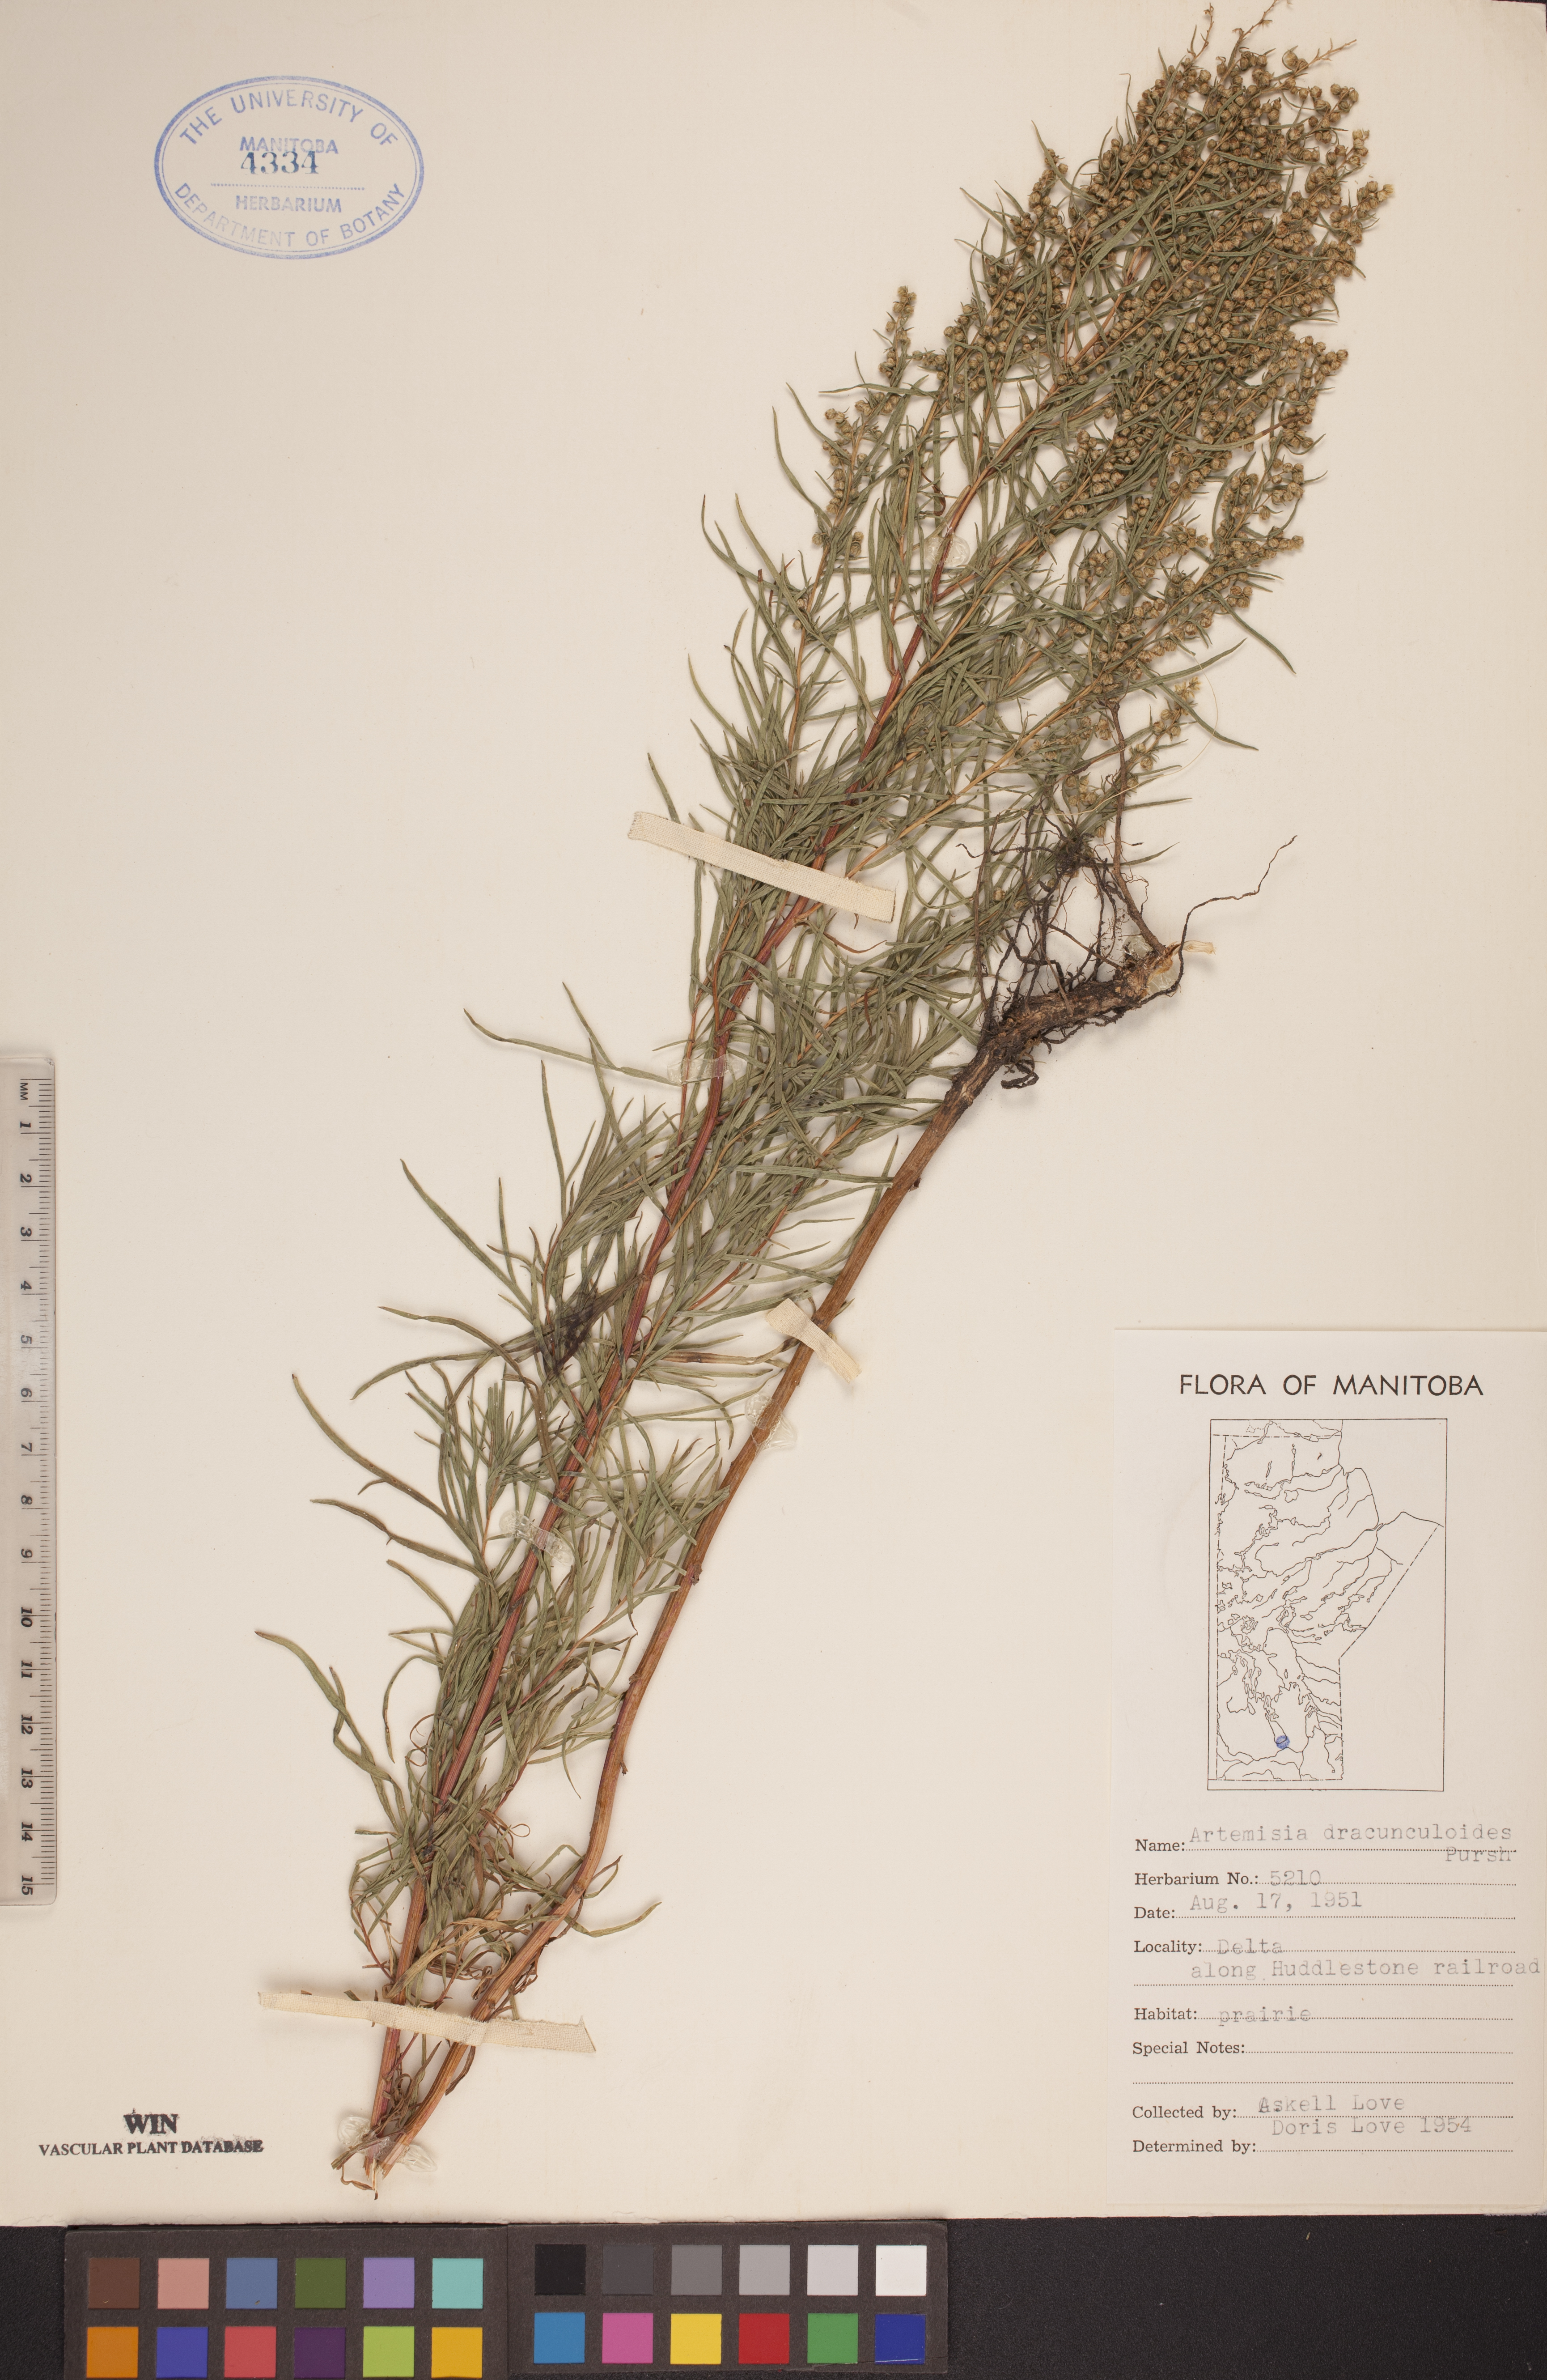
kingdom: Plantae
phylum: Tracheophyta
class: Magnoliopsida
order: Asterales
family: Asteraceae
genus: Artemisia
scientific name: Artemisia dracunculus
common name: Tarragon
